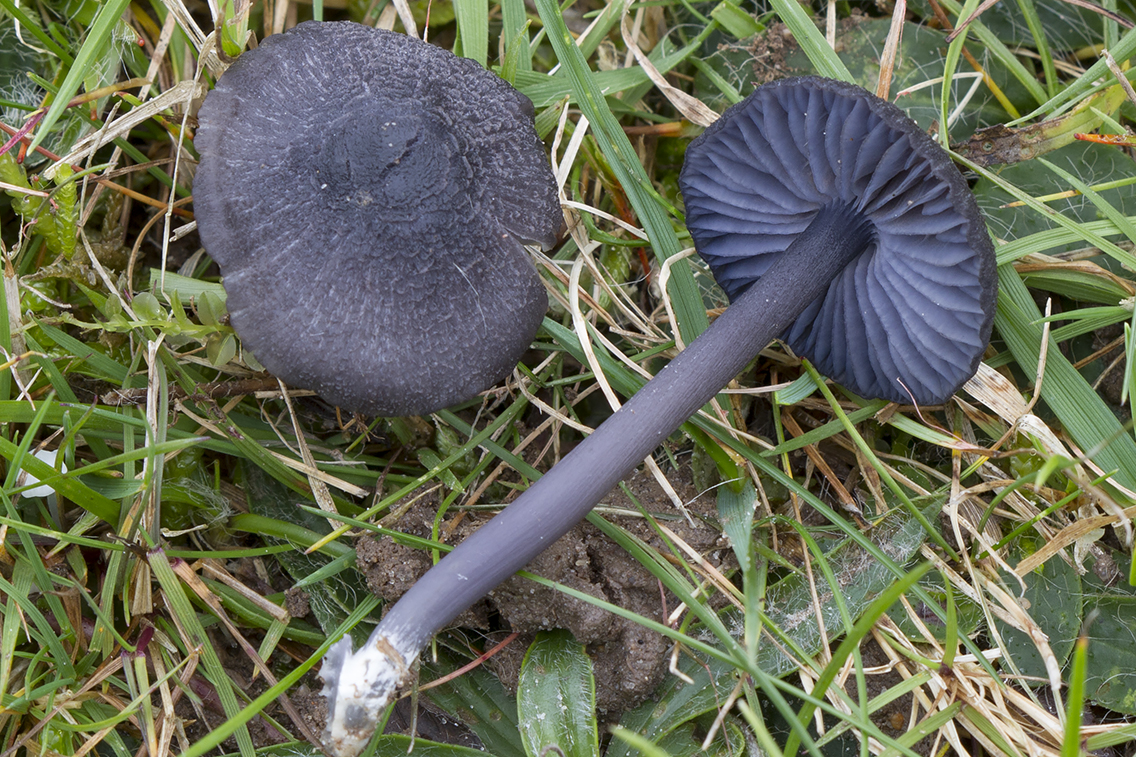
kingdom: Fungi
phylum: Basidiomycota
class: Agaricomycetes
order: Agaricales
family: Entolomataceae
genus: Entoloma
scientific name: Entoloma chalybeum
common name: blåbladet rødblad
